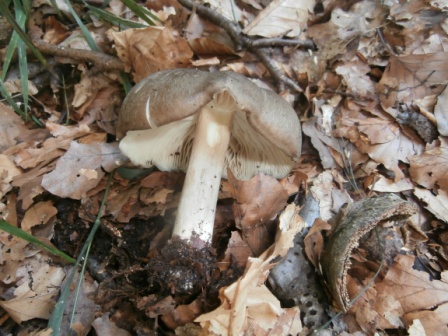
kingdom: Fungi
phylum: Basidiomycota
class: Agaricomycetes
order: Agaricales
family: Tricholomataceae
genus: Megacollybia
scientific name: Megacollybia platyphylla
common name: bredbladet væbnerhat
